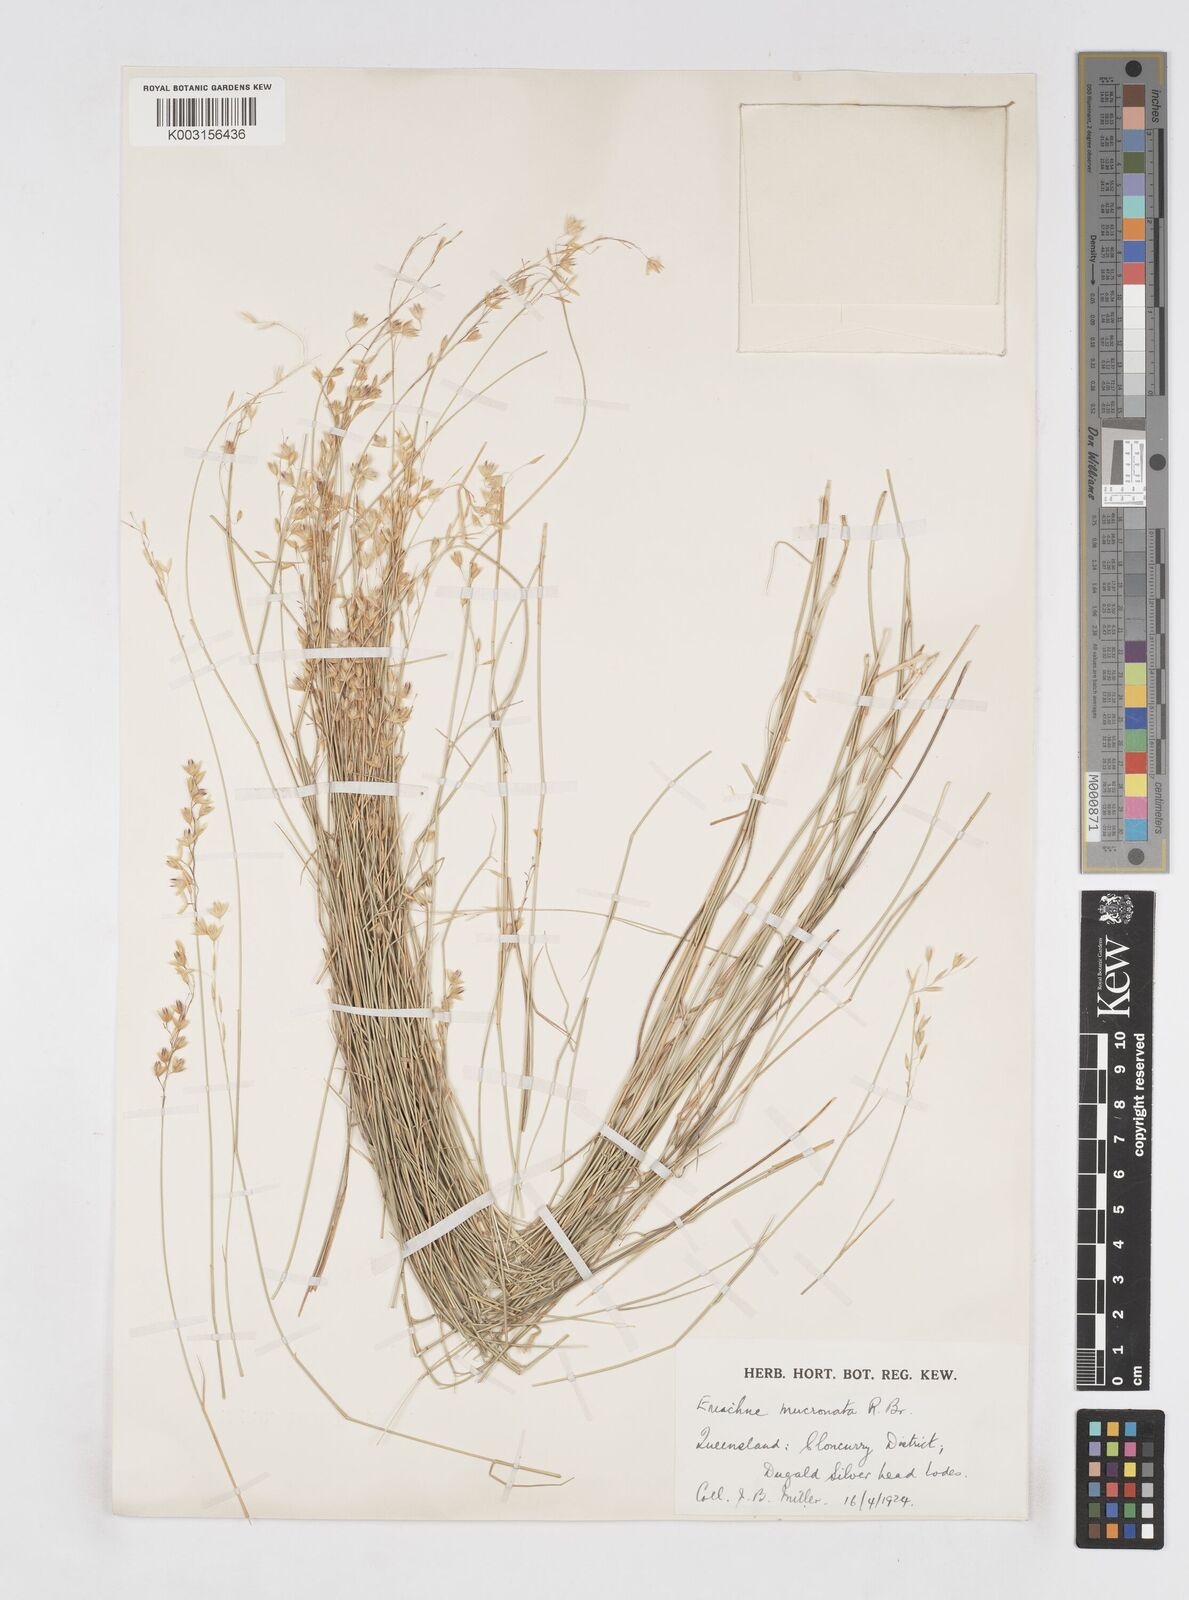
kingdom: Plantae
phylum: Tracheophyta
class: Liliopsida
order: Poales
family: Poaceae
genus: Eriachne
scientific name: Eriachne mucronata
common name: Mountain wanderrie grass
